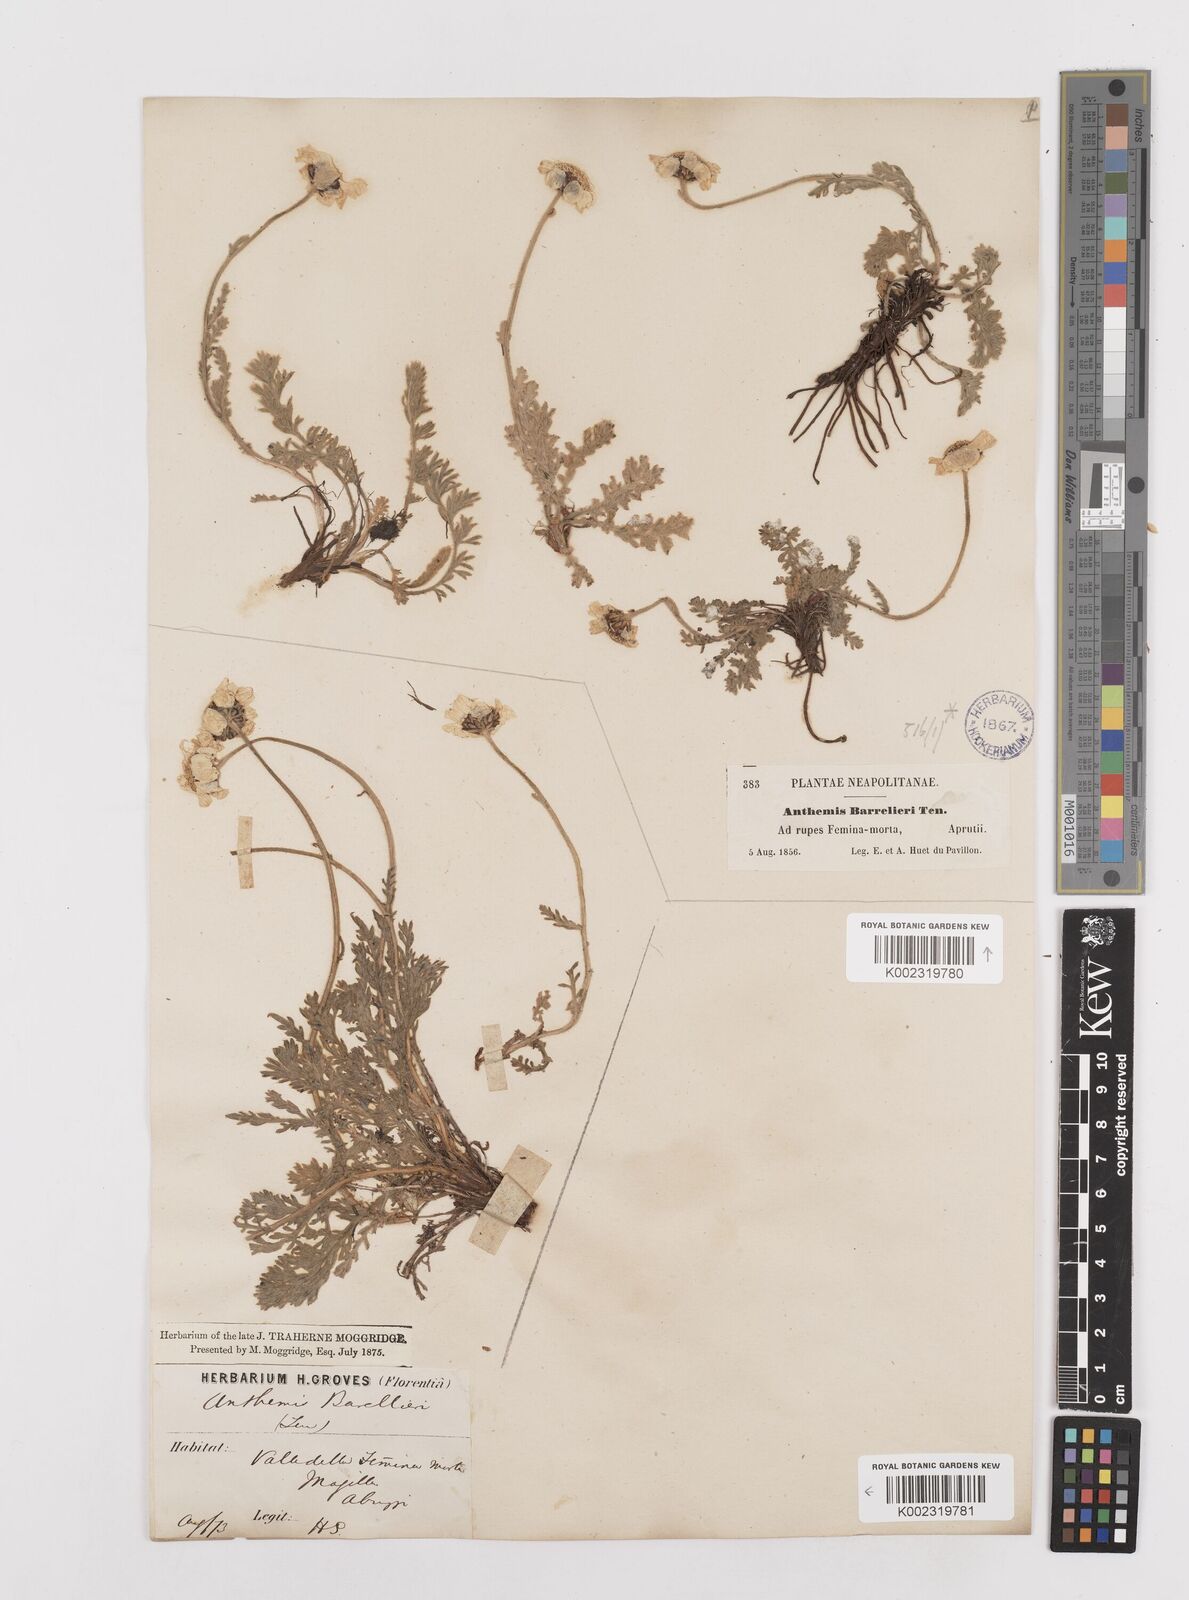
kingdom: Plantae
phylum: Tracheophyta
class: Magnoliopsida
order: Asterales
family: Asteraceae
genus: Achillea
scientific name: Achillea barrelieri
